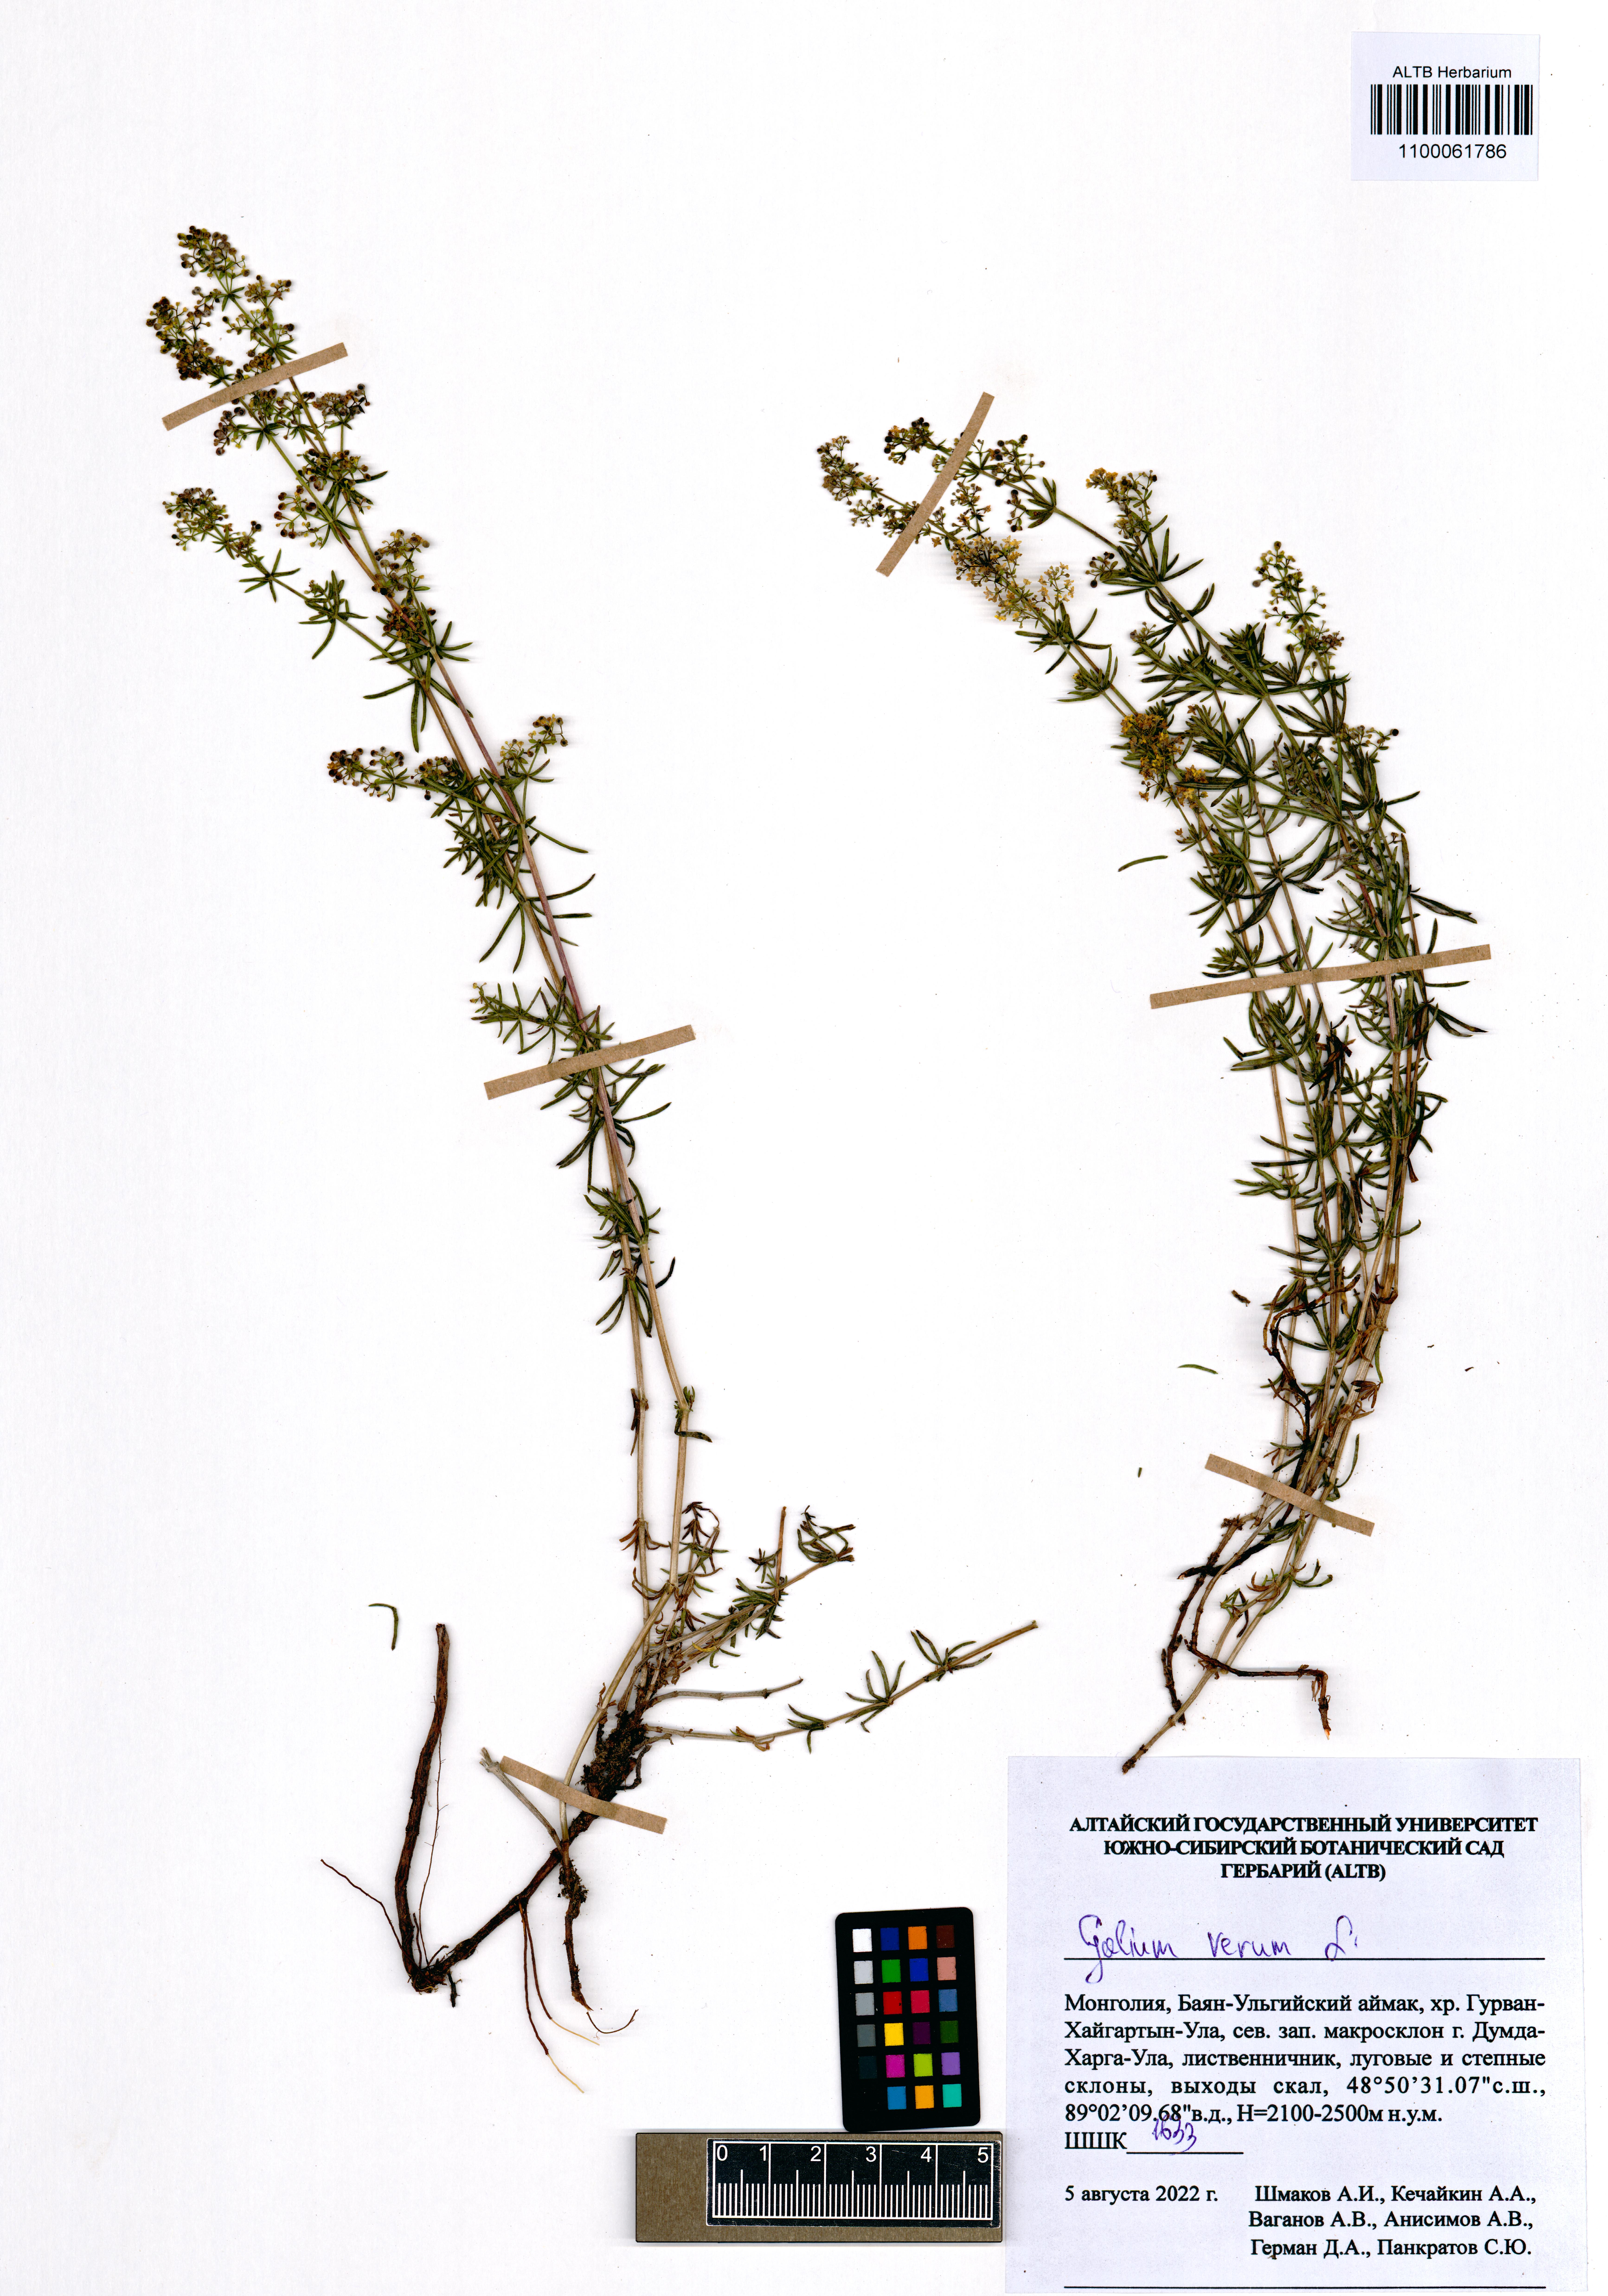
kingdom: Plantae
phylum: Tracheophyta
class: Magnoliopsida
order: Gentianales
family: Rubiaceae
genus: Galium
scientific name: Galium verum
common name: Lady's bedstraw
